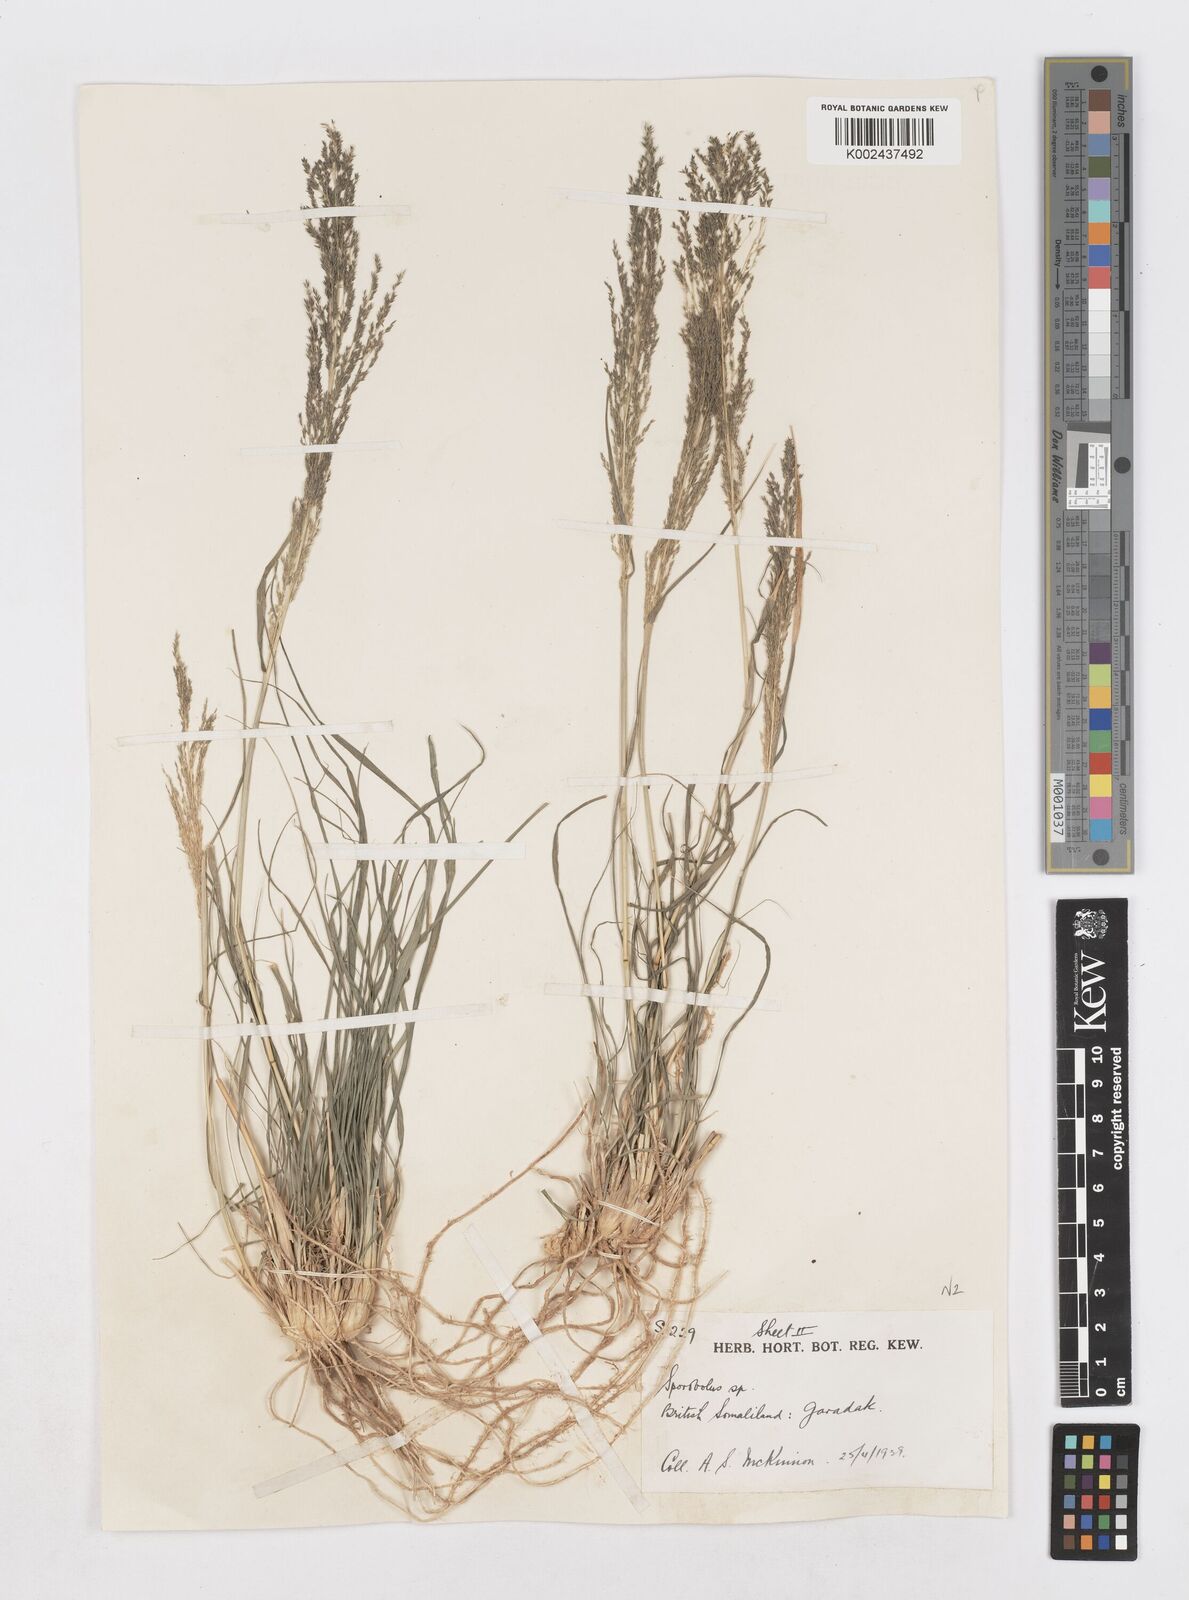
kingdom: Plantae
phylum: Tracheophyta
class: Liliopsida
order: Poales
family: Poaceae
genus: Sporobolus
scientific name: Sporobolus nervosus
